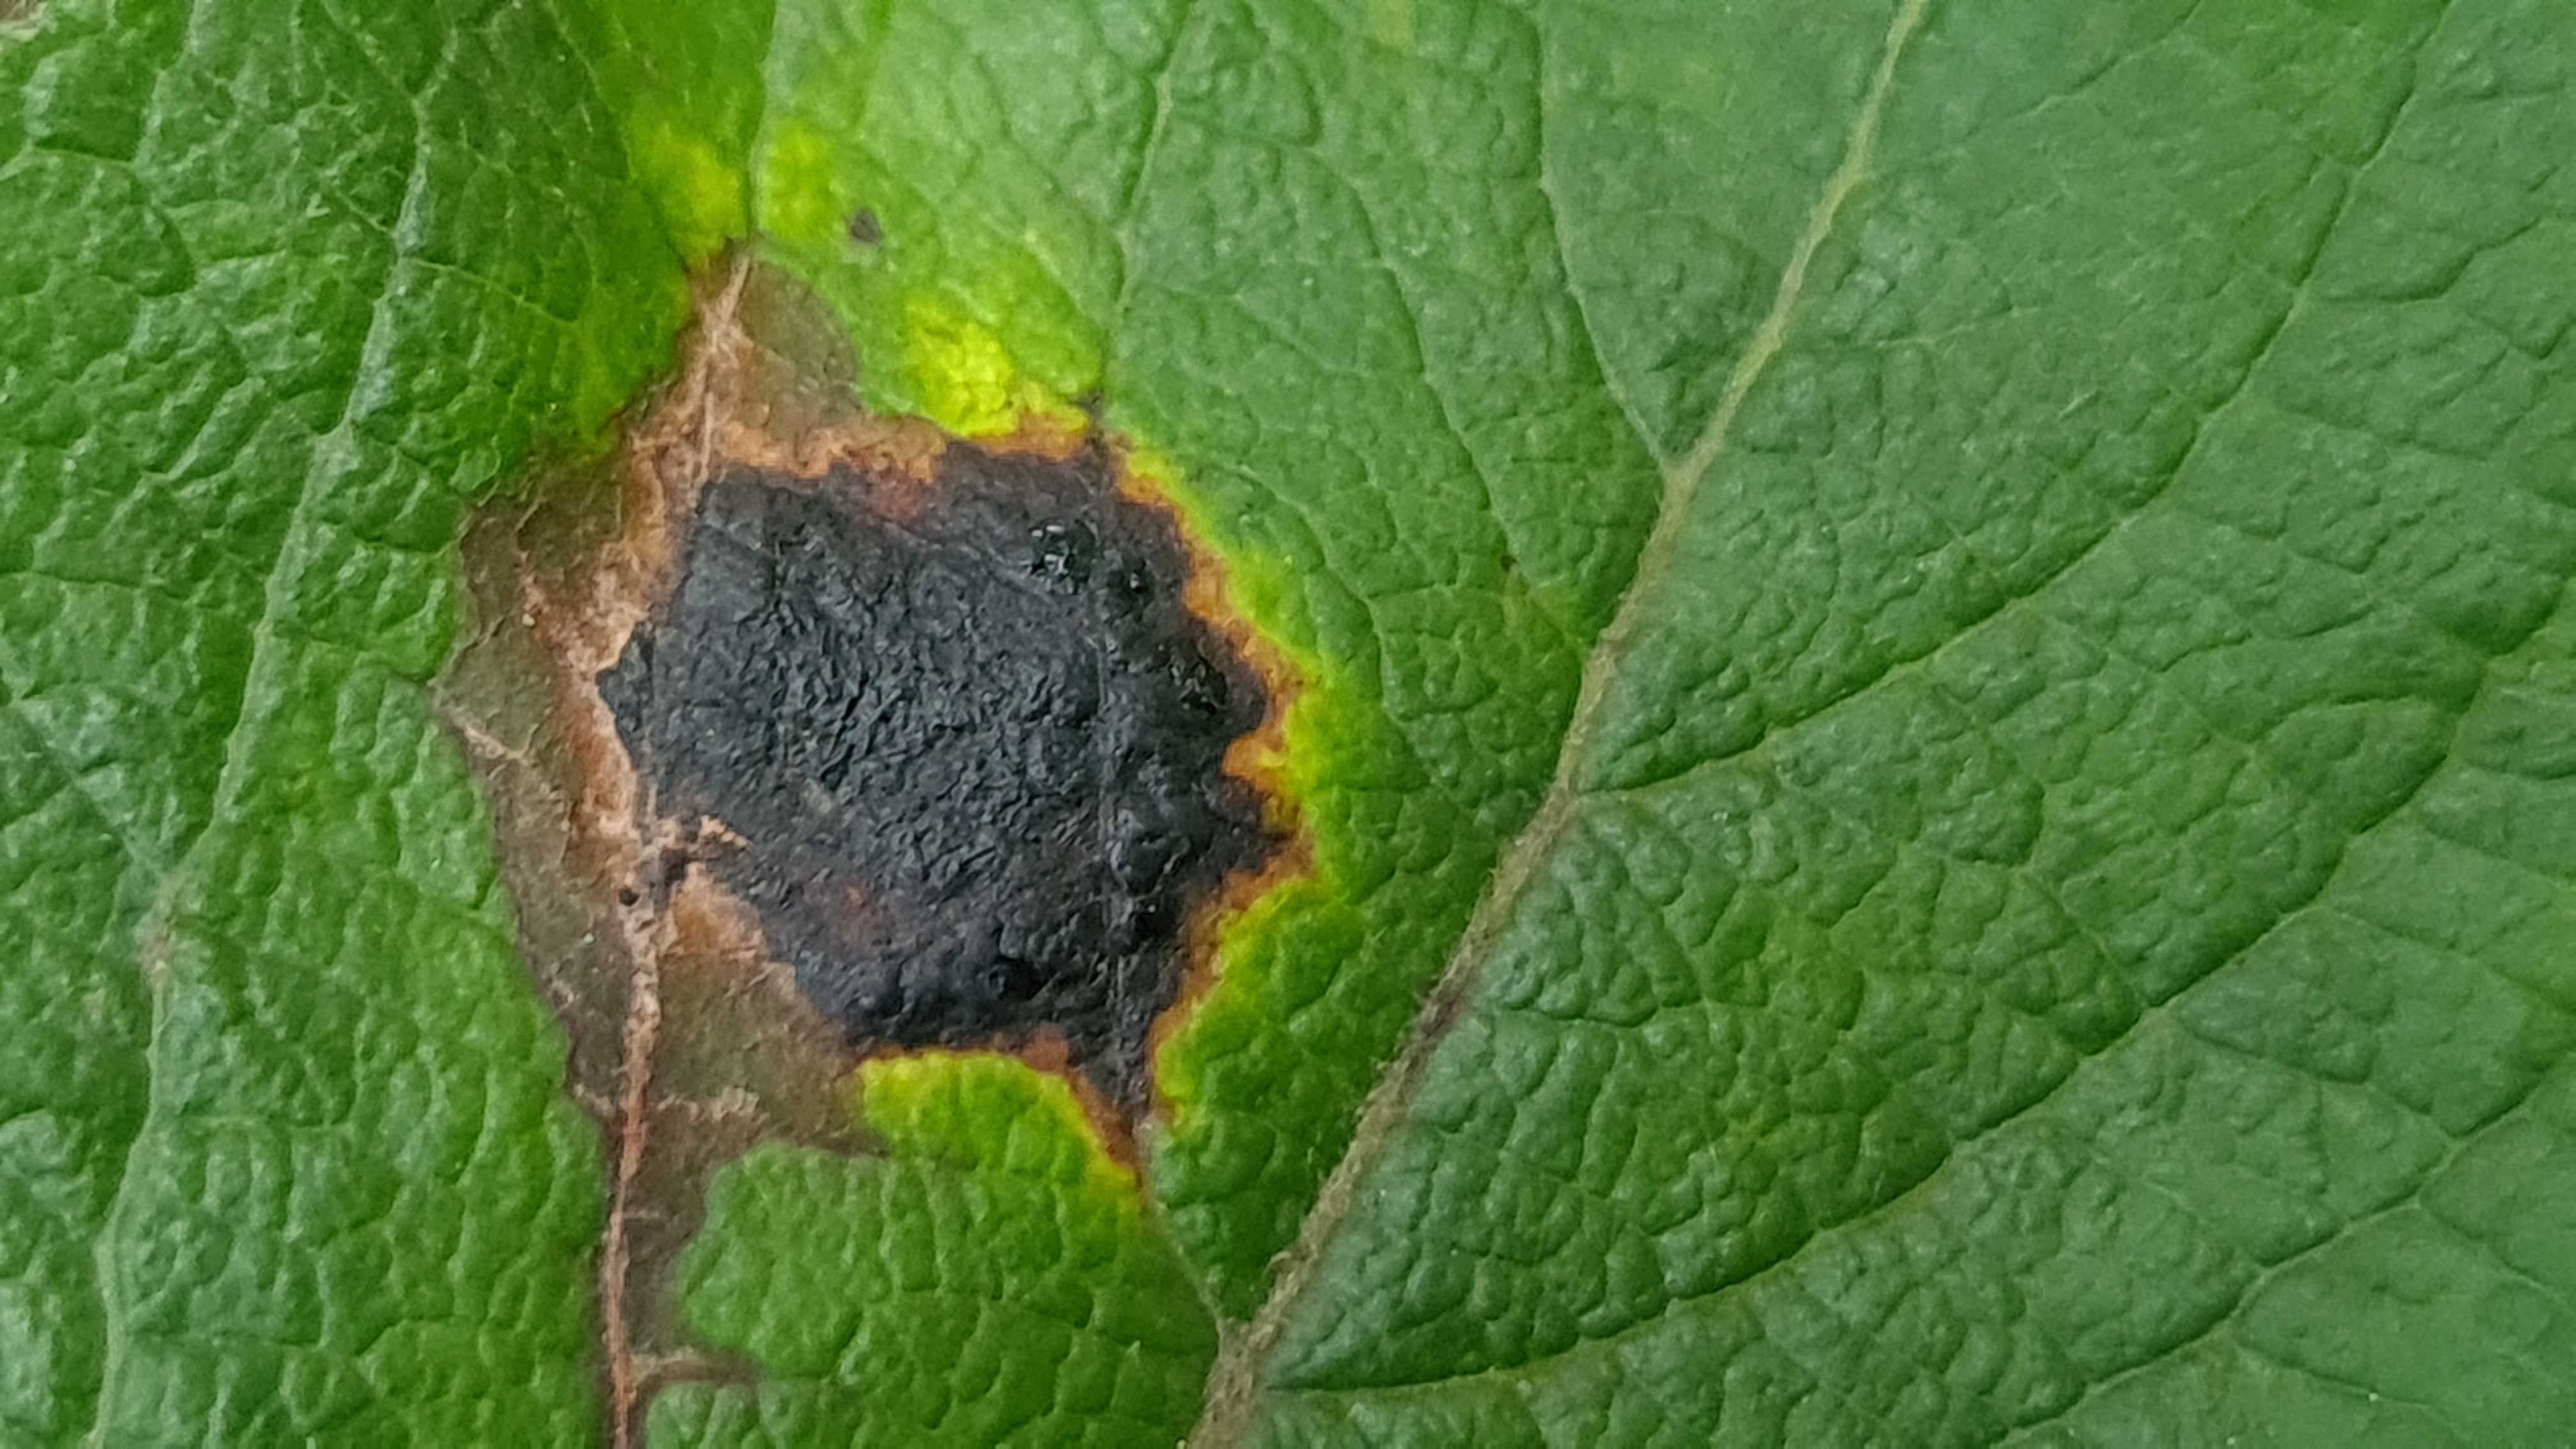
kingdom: Fungi
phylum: Ascomycota
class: Leotiomycetes
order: Rhytismatales
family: Rhytismataceae
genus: Rhytisma
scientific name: Rhytisma salicinum
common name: pile-rynkeplet
